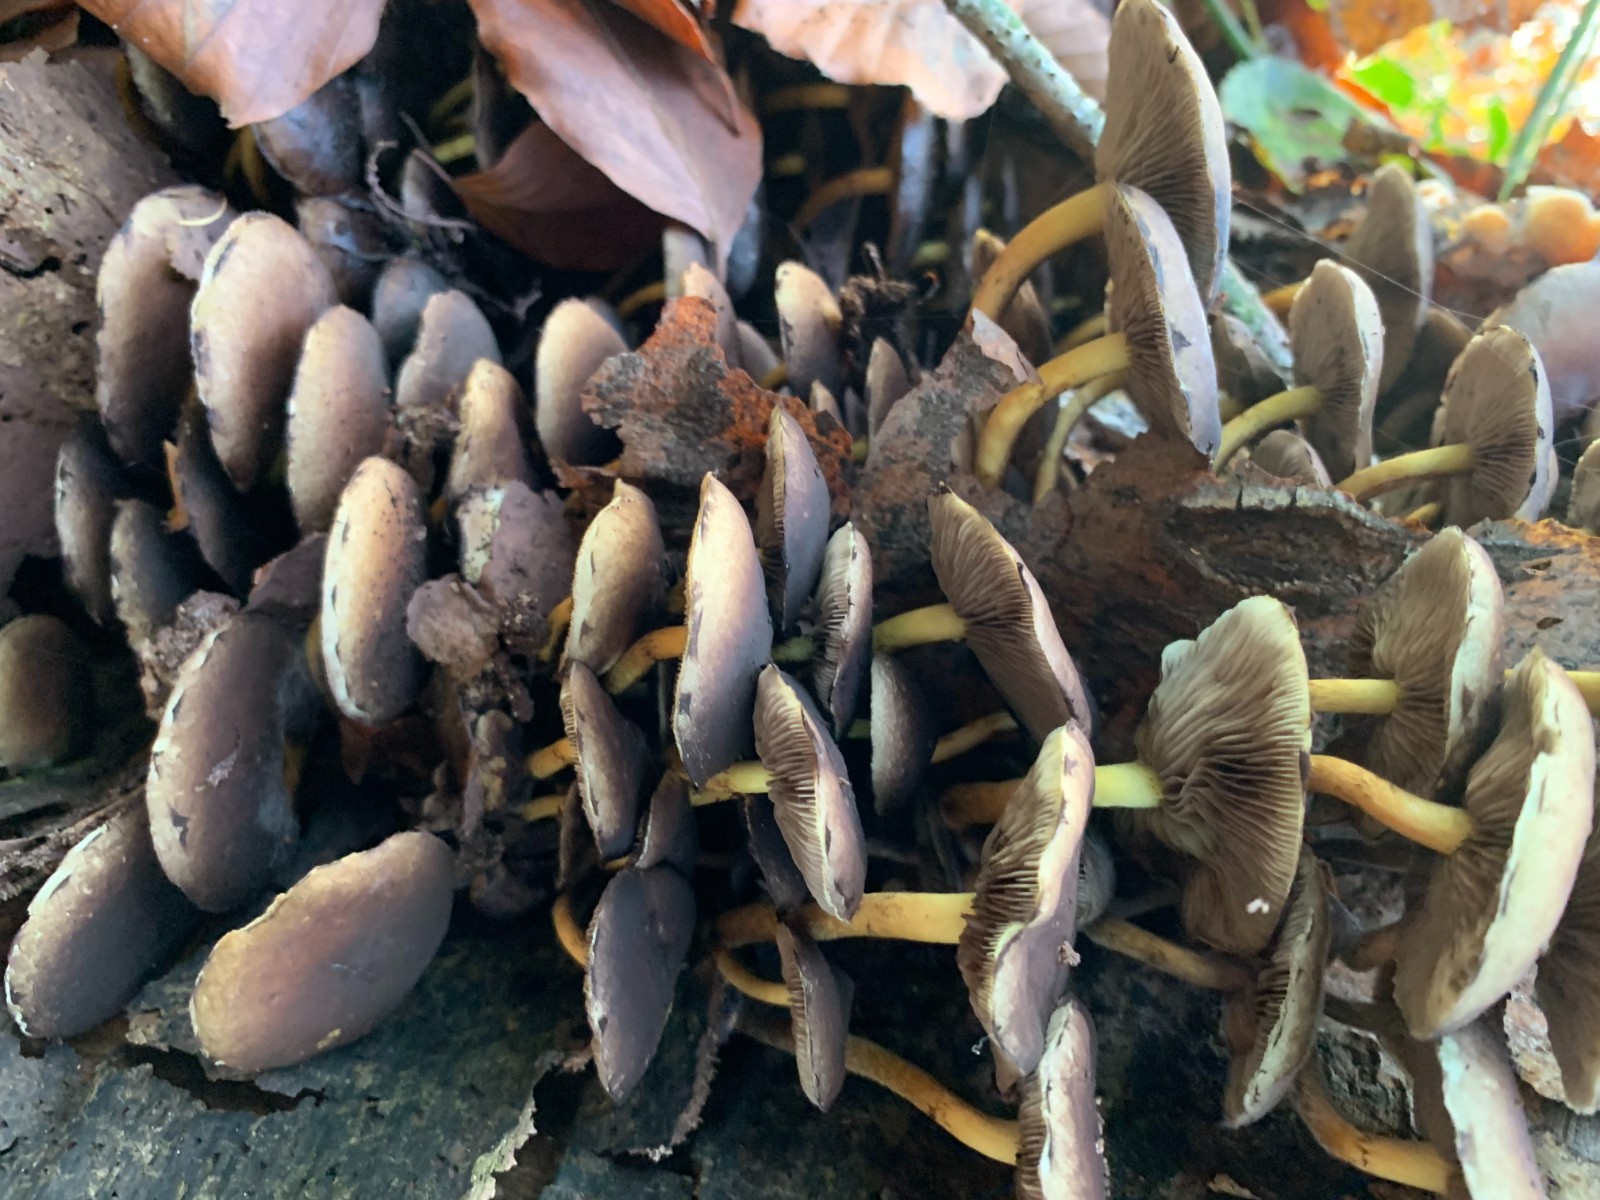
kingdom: Fungi
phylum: Basidiomycota
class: Agaricomycetes
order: Agaricales
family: Strophariaceae
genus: Hypholoma
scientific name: Hypholoma fasciculare
